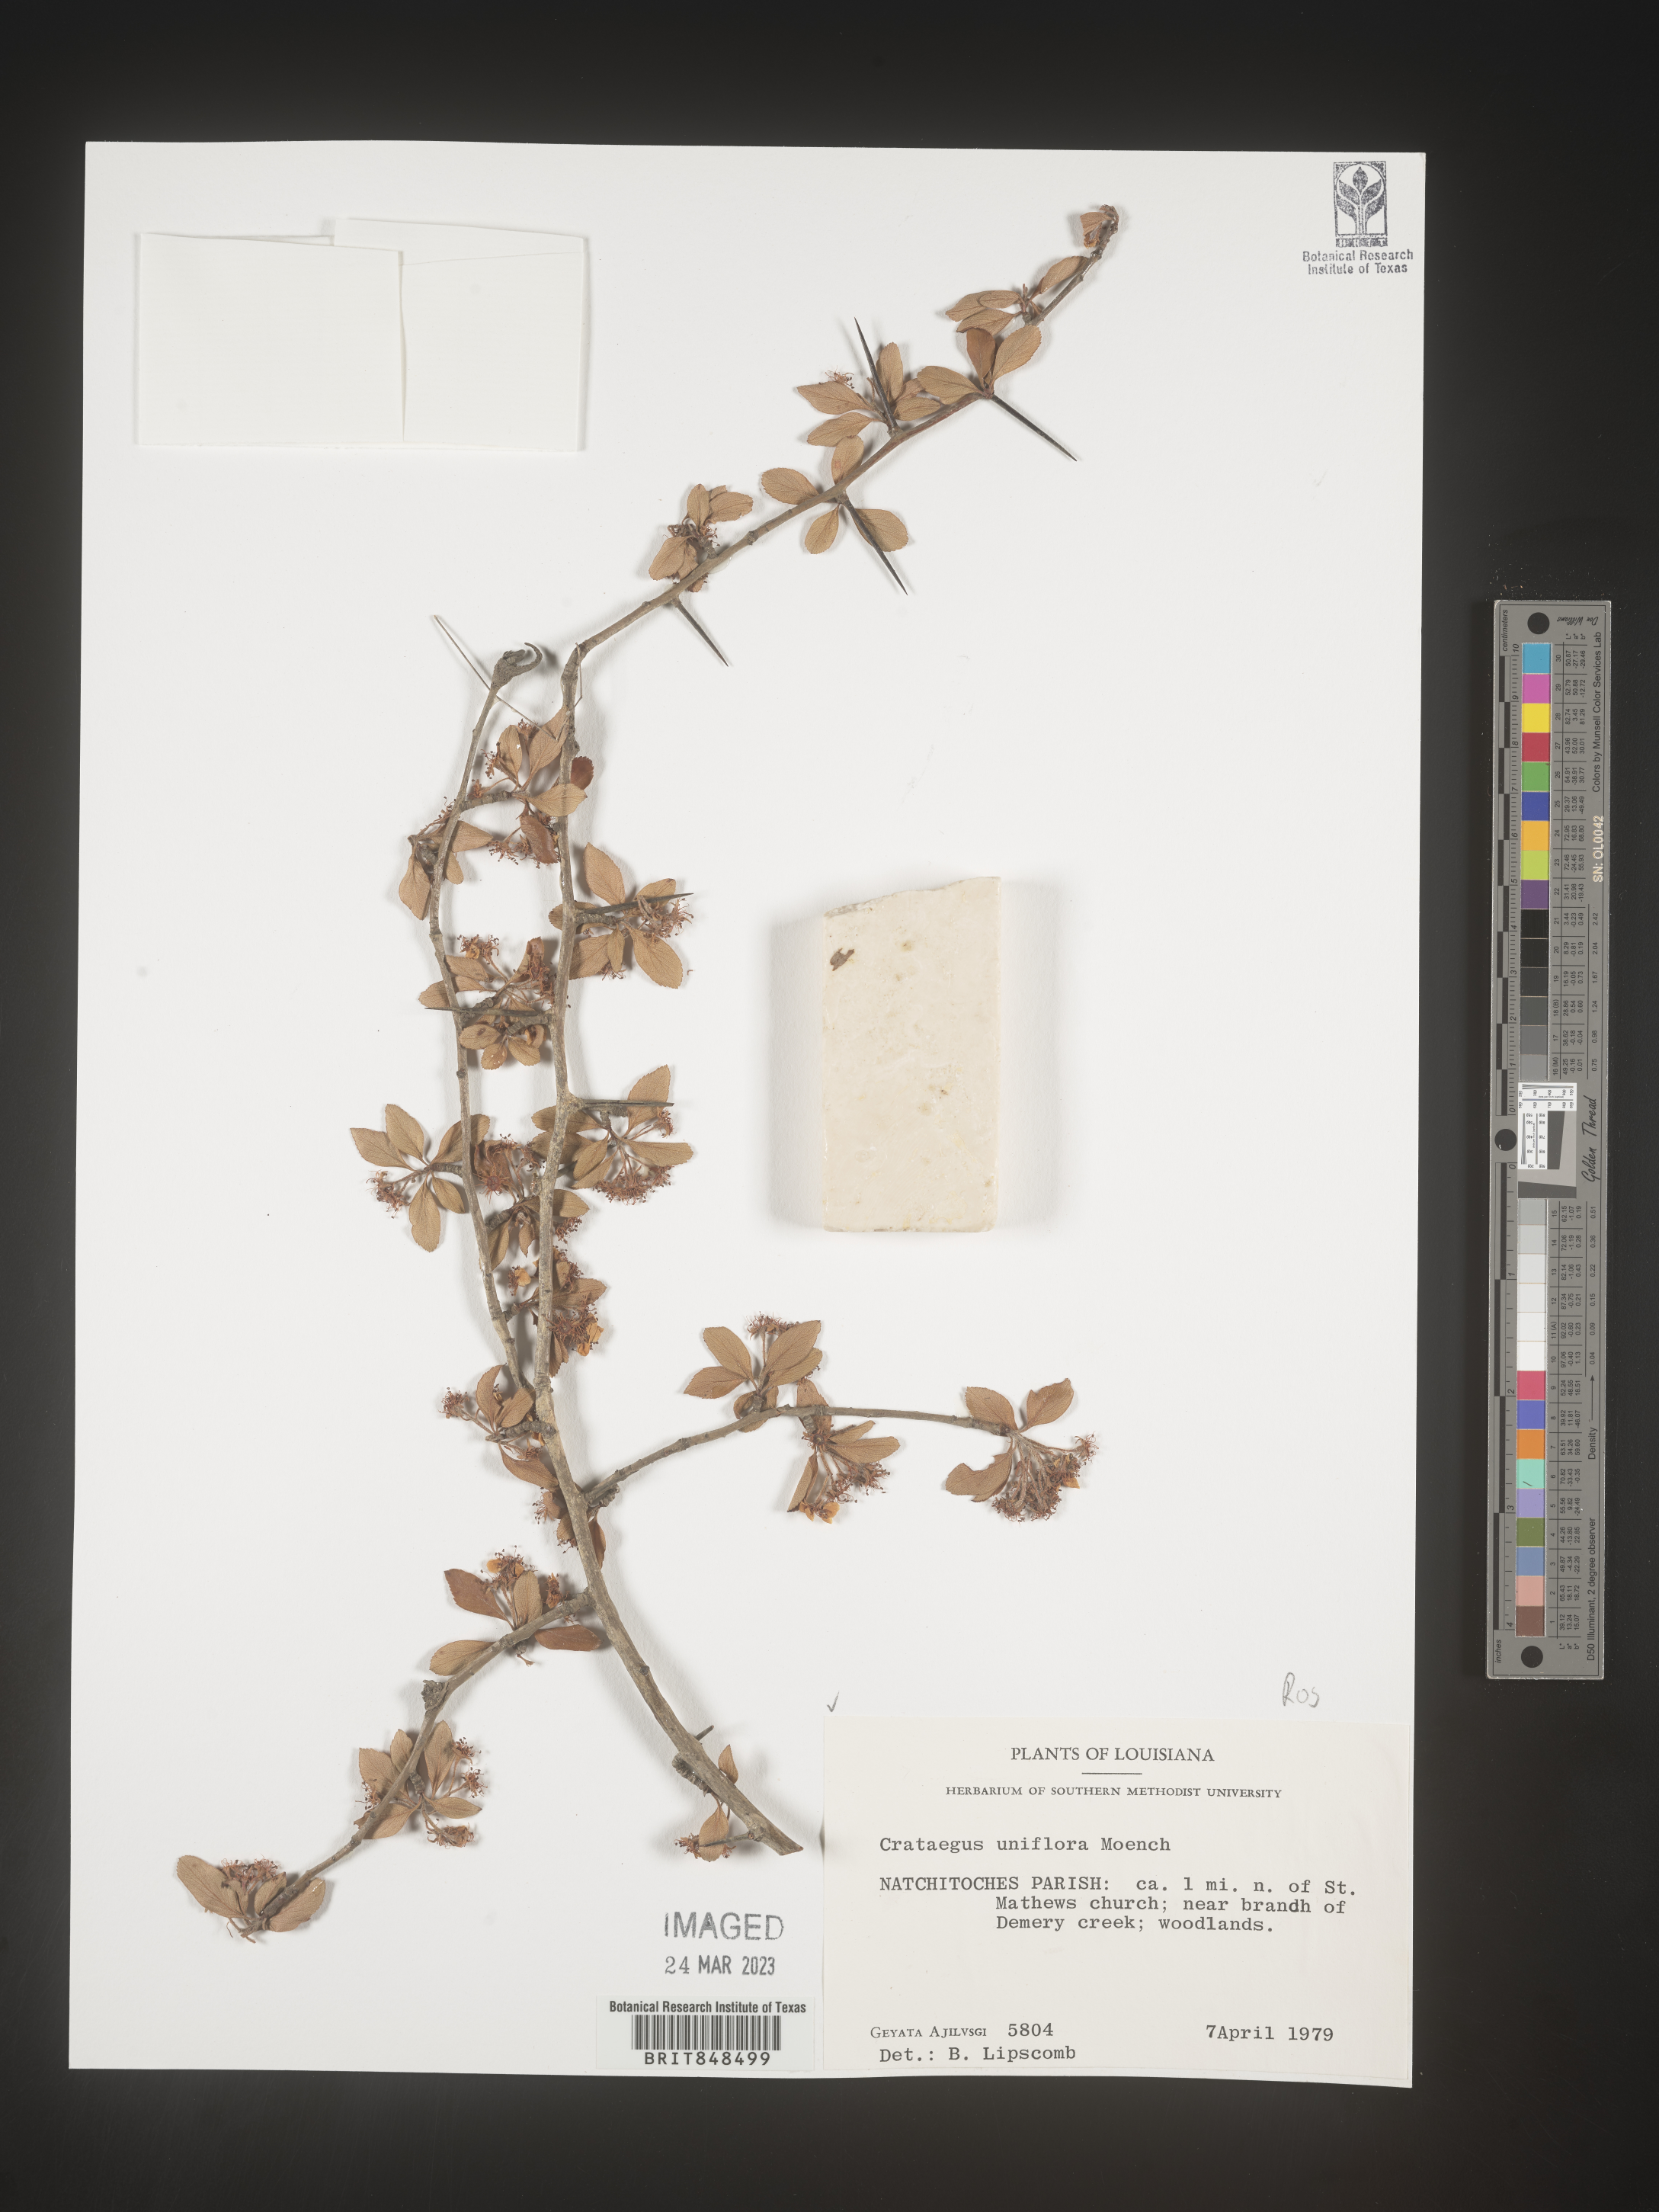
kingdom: Plantae
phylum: Tracheophyta
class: Magnoliopsida
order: Rosales
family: Rosaceae
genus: Crataegus
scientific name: Crataegus uniflora
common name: One-flower hawthorn
